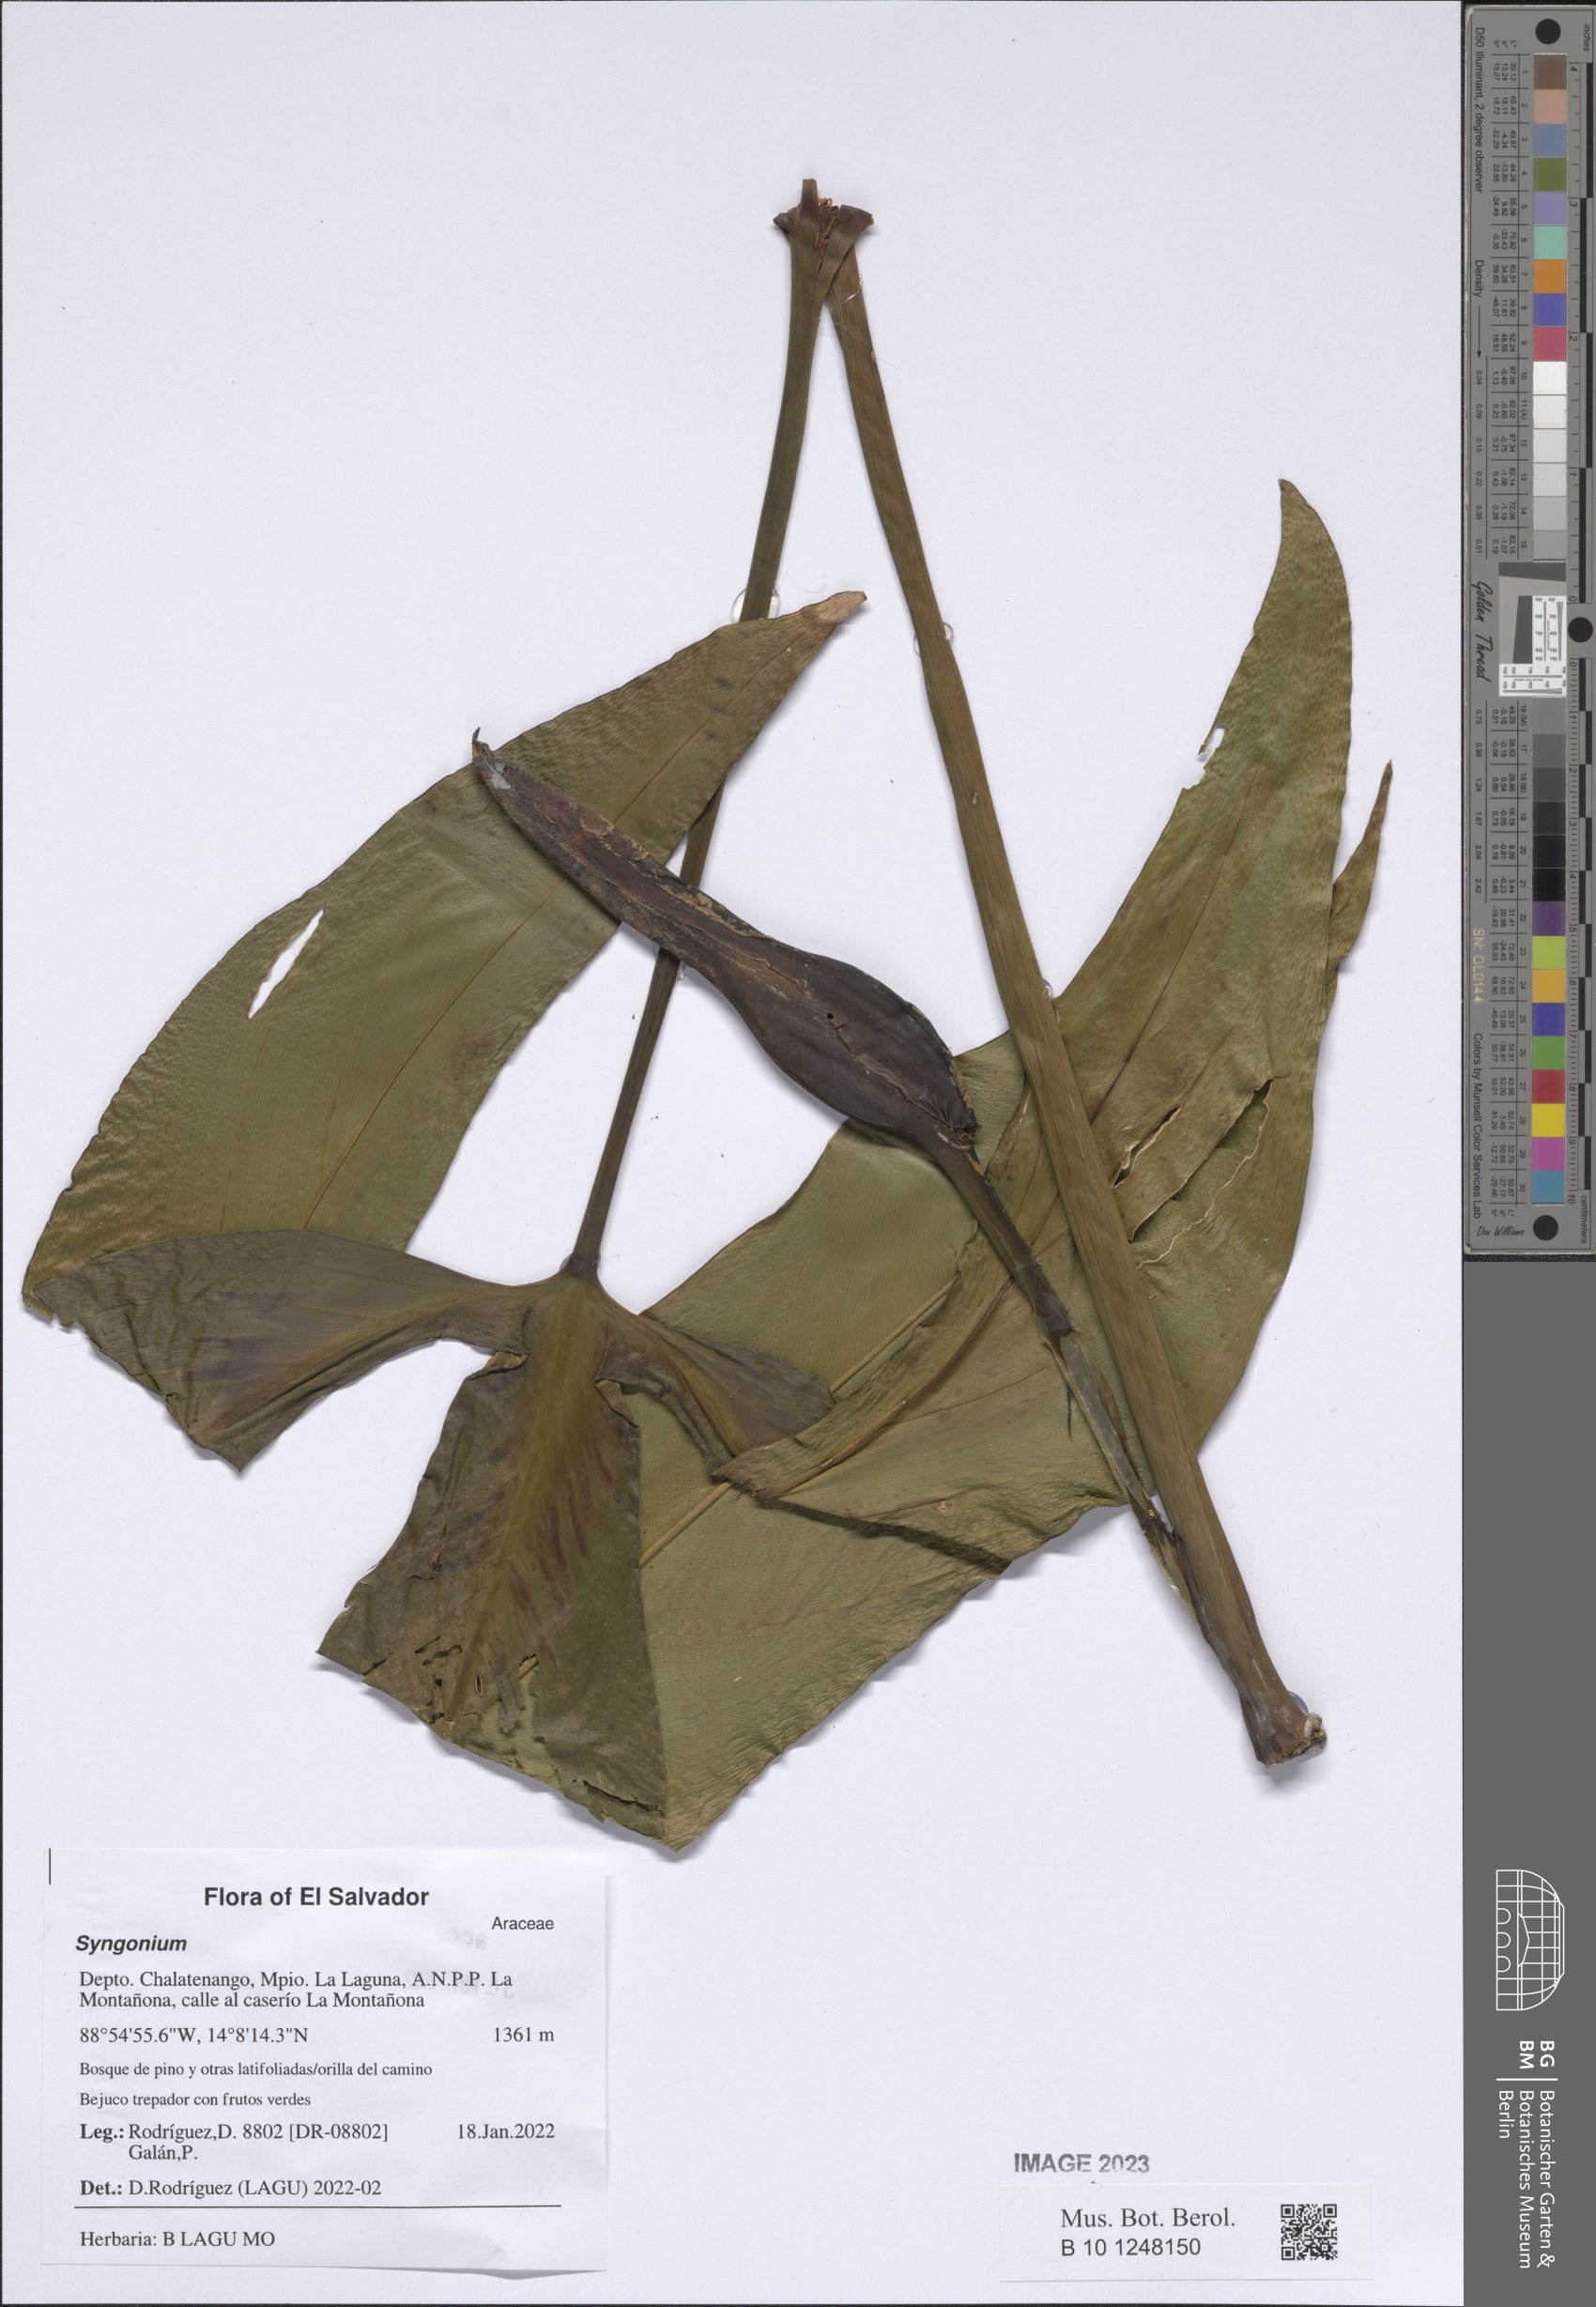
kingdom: Plantae
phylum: Tracheophyta
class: Liliopsida
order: Alismatales
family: Araceae
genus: Syngonium
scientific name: Syngonium
